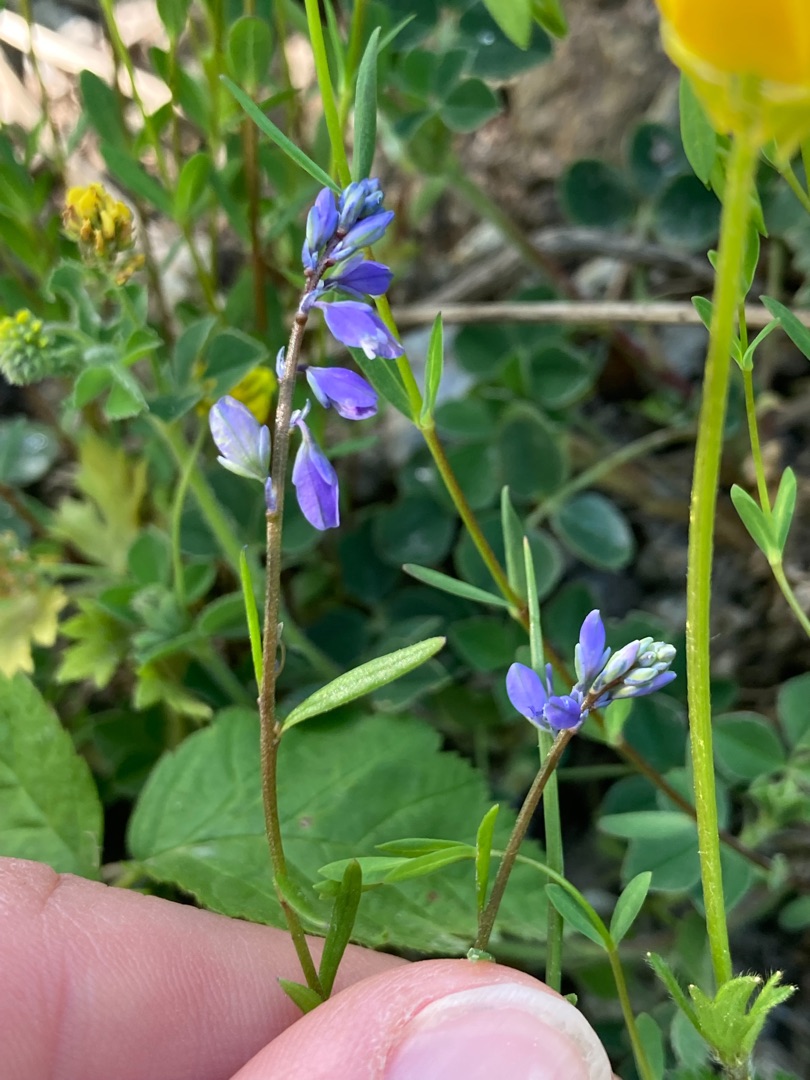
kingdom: Plantae
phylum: Tracheophyta
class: Magnoliopsida
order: Fabales
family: Polygalaceae
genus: Polygala
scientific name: Polygala amarella
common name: Bitter mælkeurt
